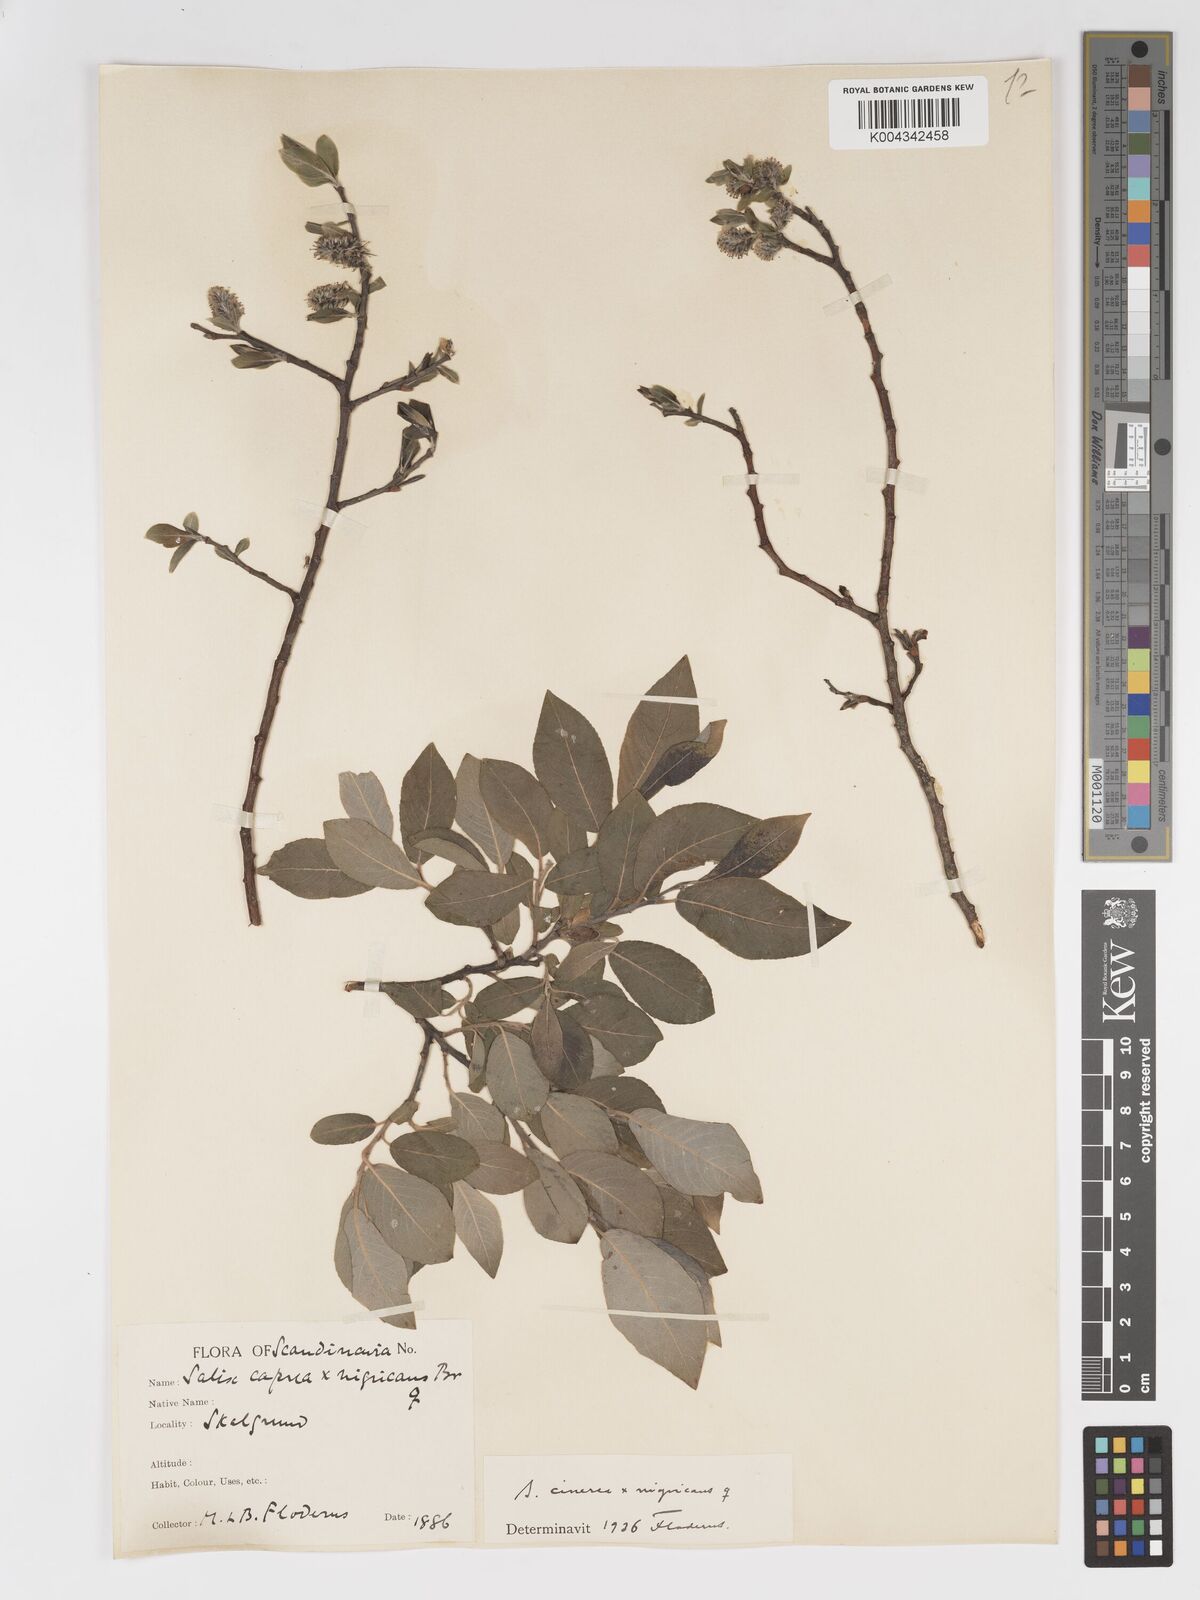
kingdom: Plantae
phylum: Tracheophyta
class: Magnoliopsida
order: Malpighiales
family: Salicaceae
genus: Salix
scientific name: Salix
